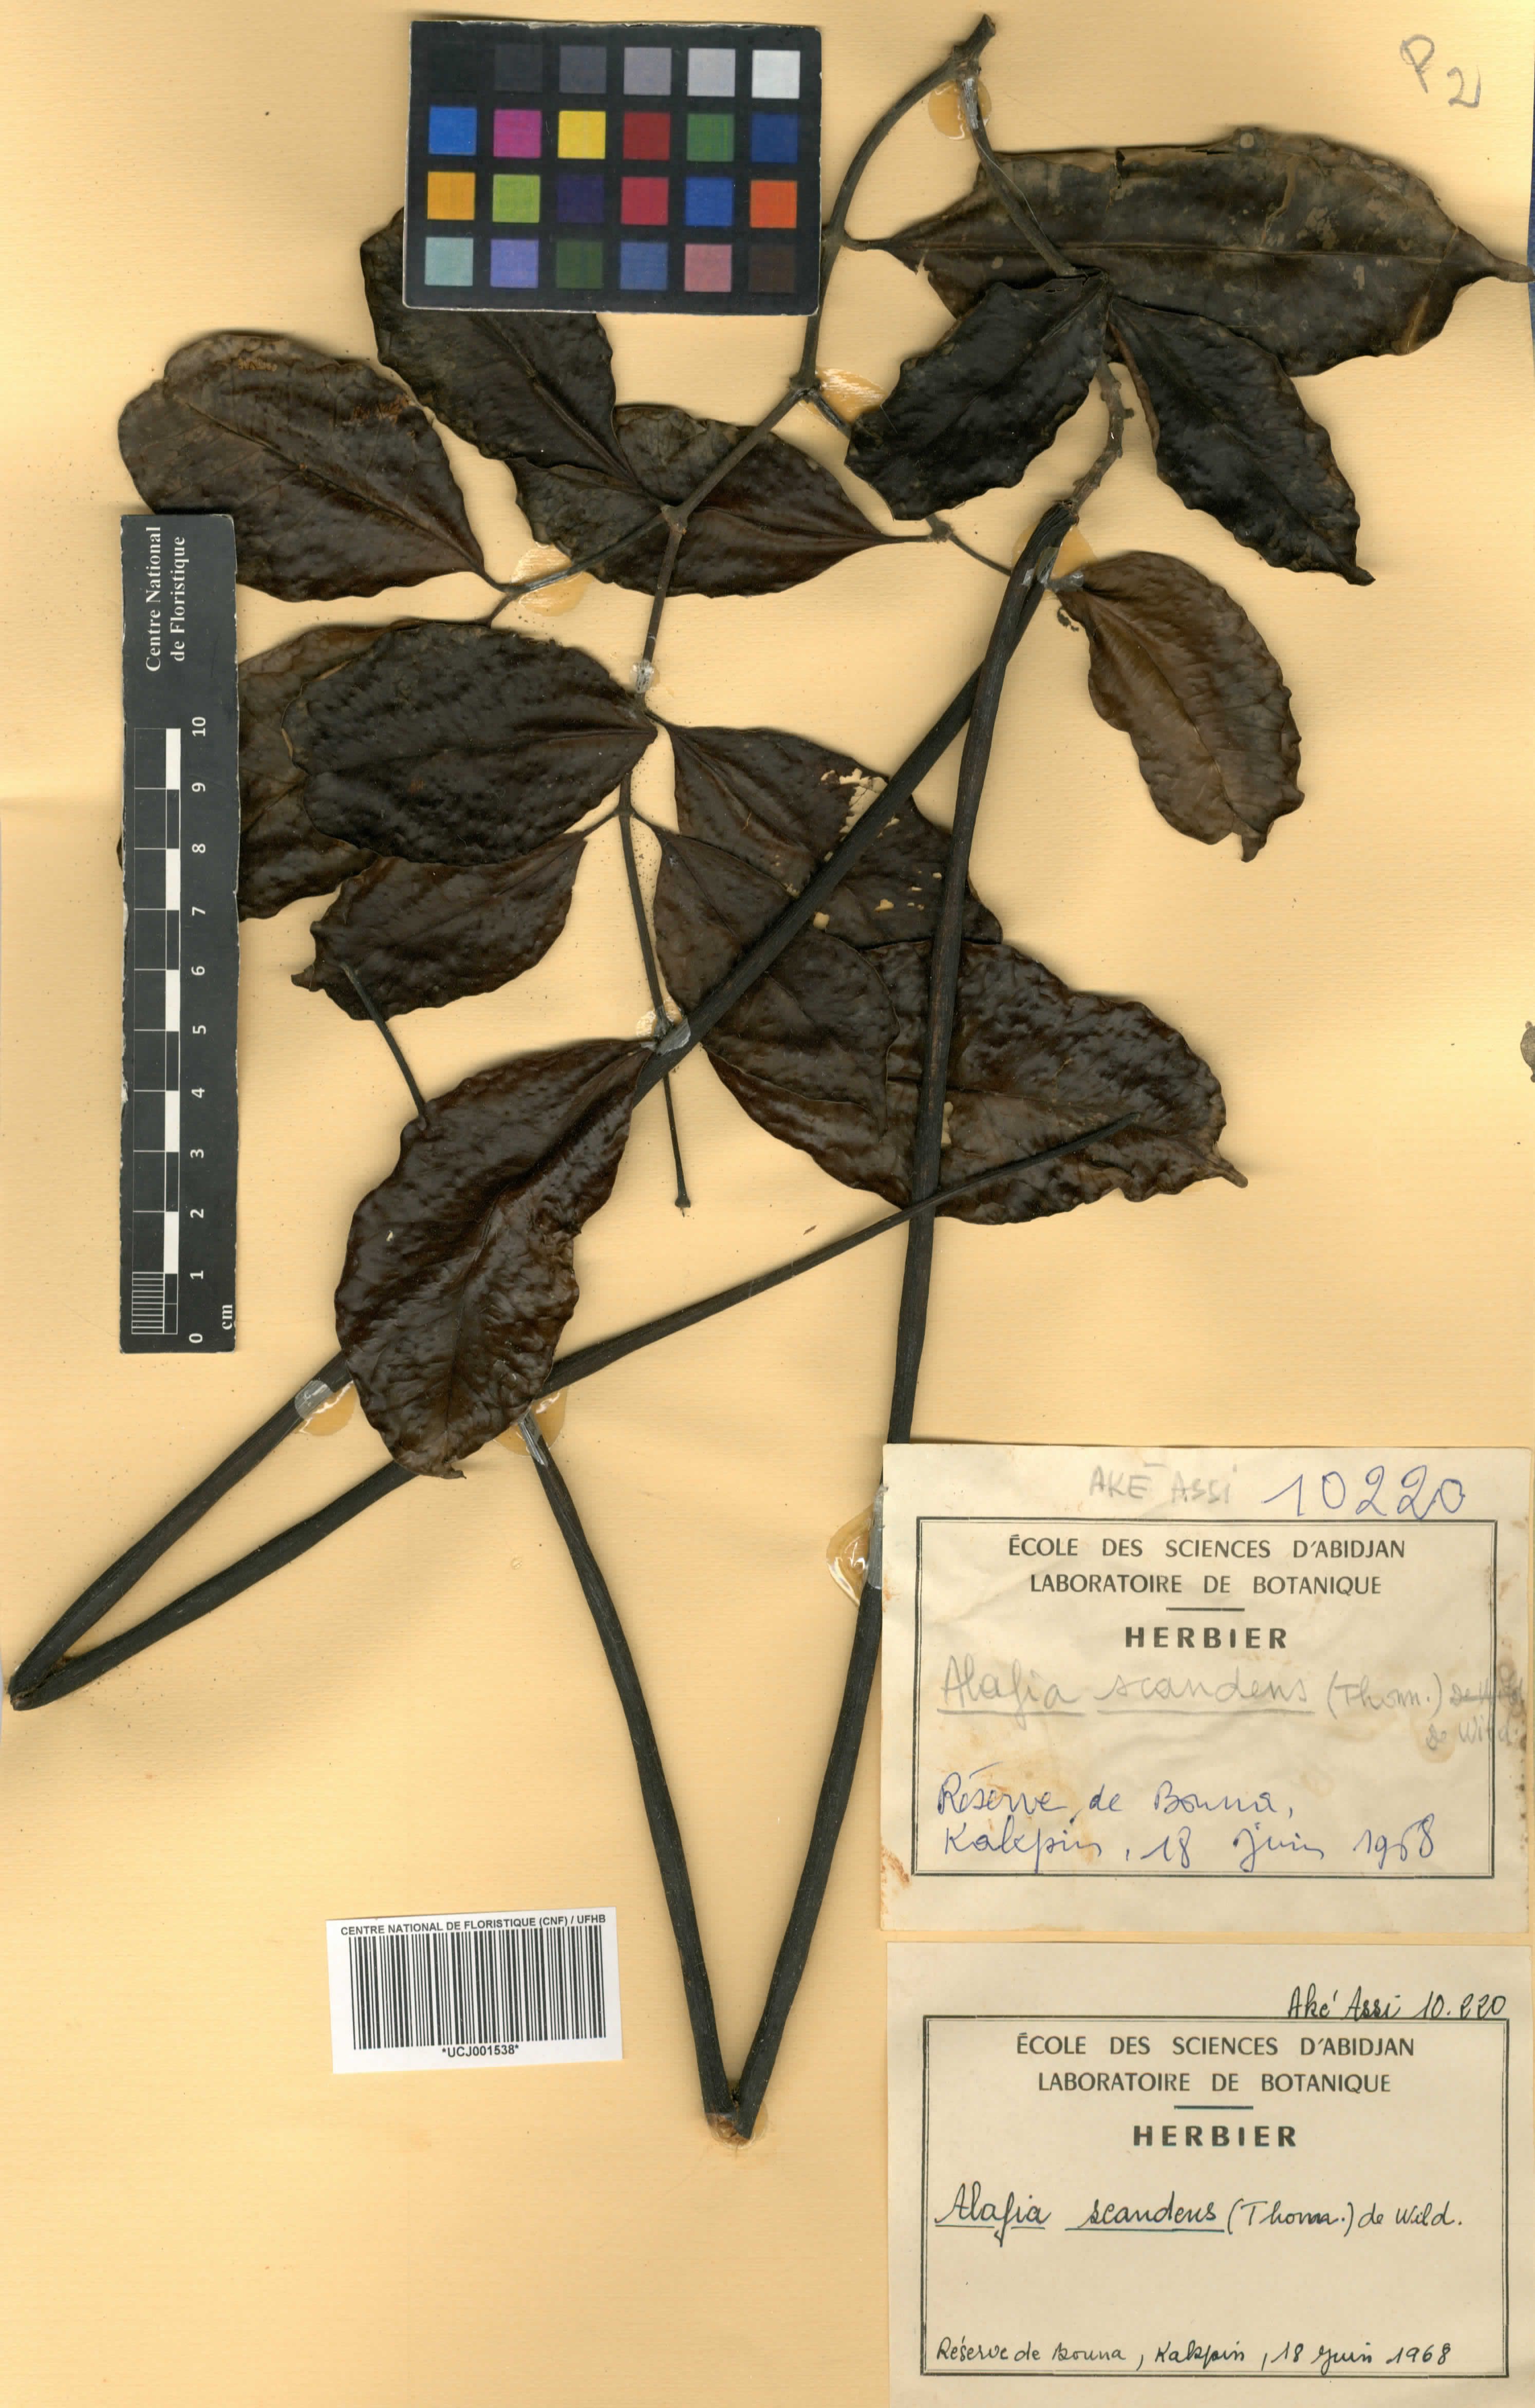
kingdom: Plantae
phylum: Tracheophyta
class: Magnoliopsida
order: Gentianales
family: Apocynaceae
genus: Alafia
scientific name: Alafia scandens
